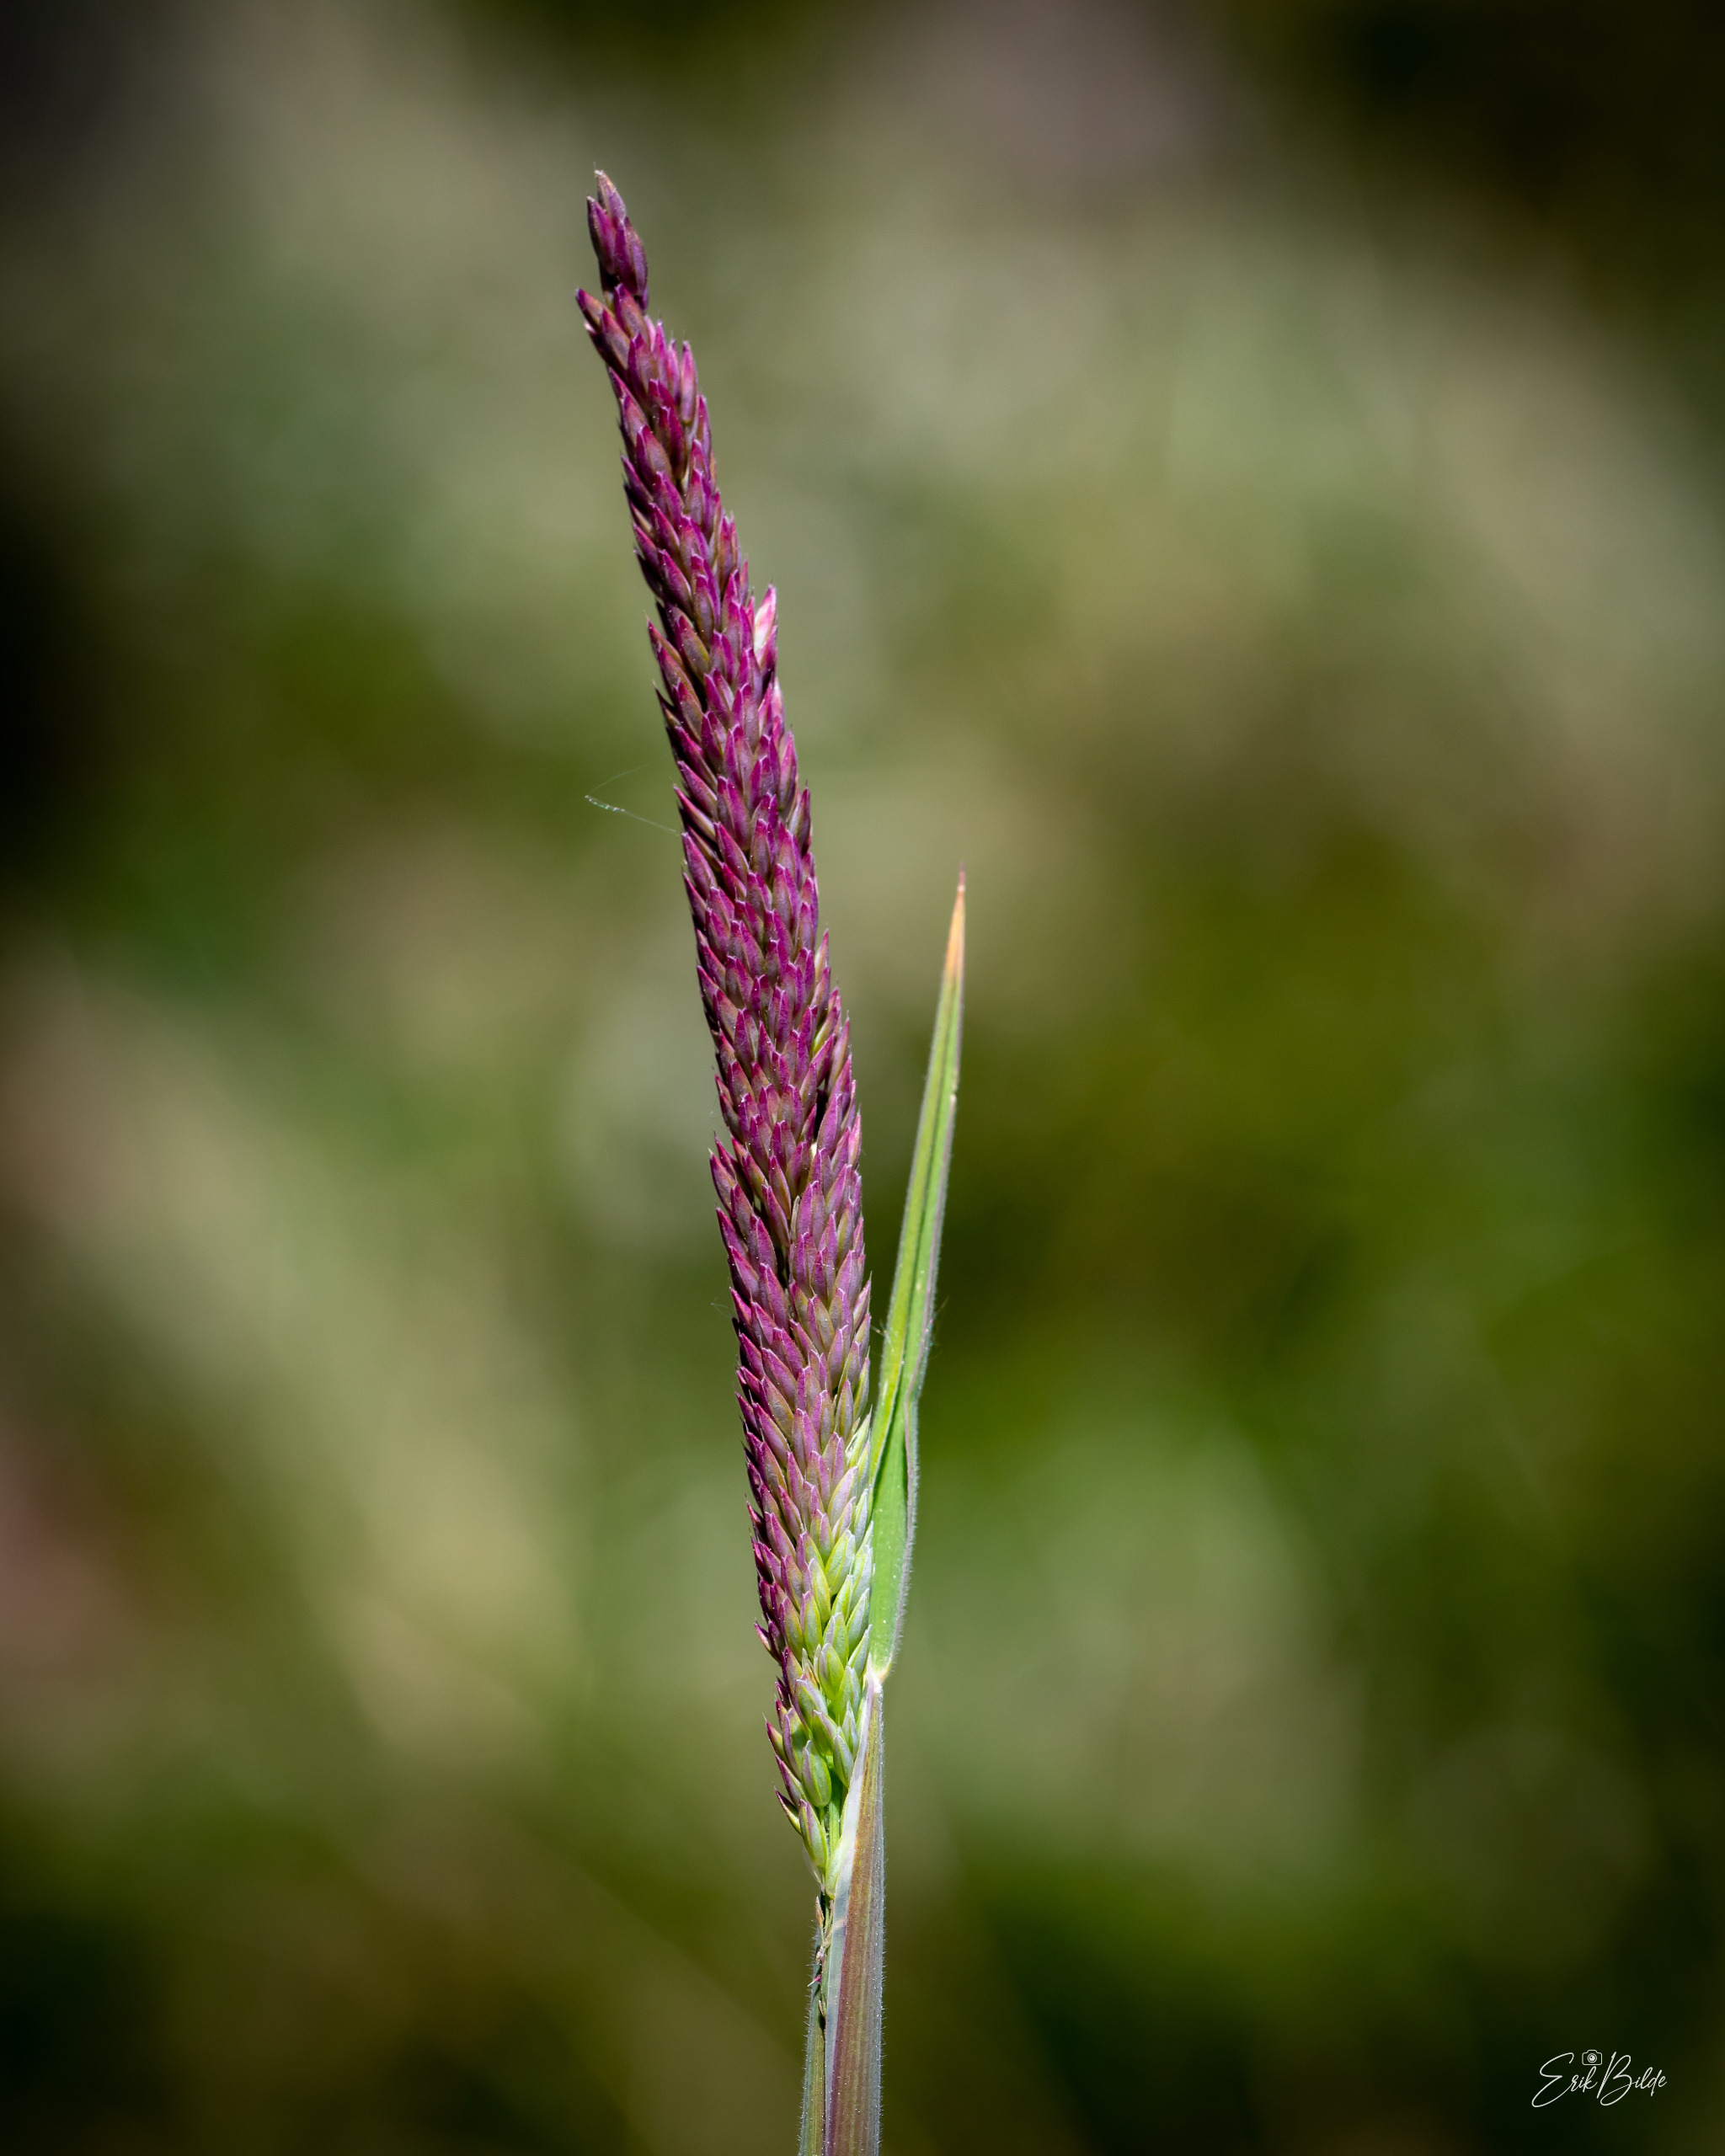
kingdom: Plantae
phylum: Tracheophyta
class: Liliopsida
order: Poales
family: Poaceae
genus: Holcus
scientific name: Holcus lanatus
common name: Fløjlsgræs
